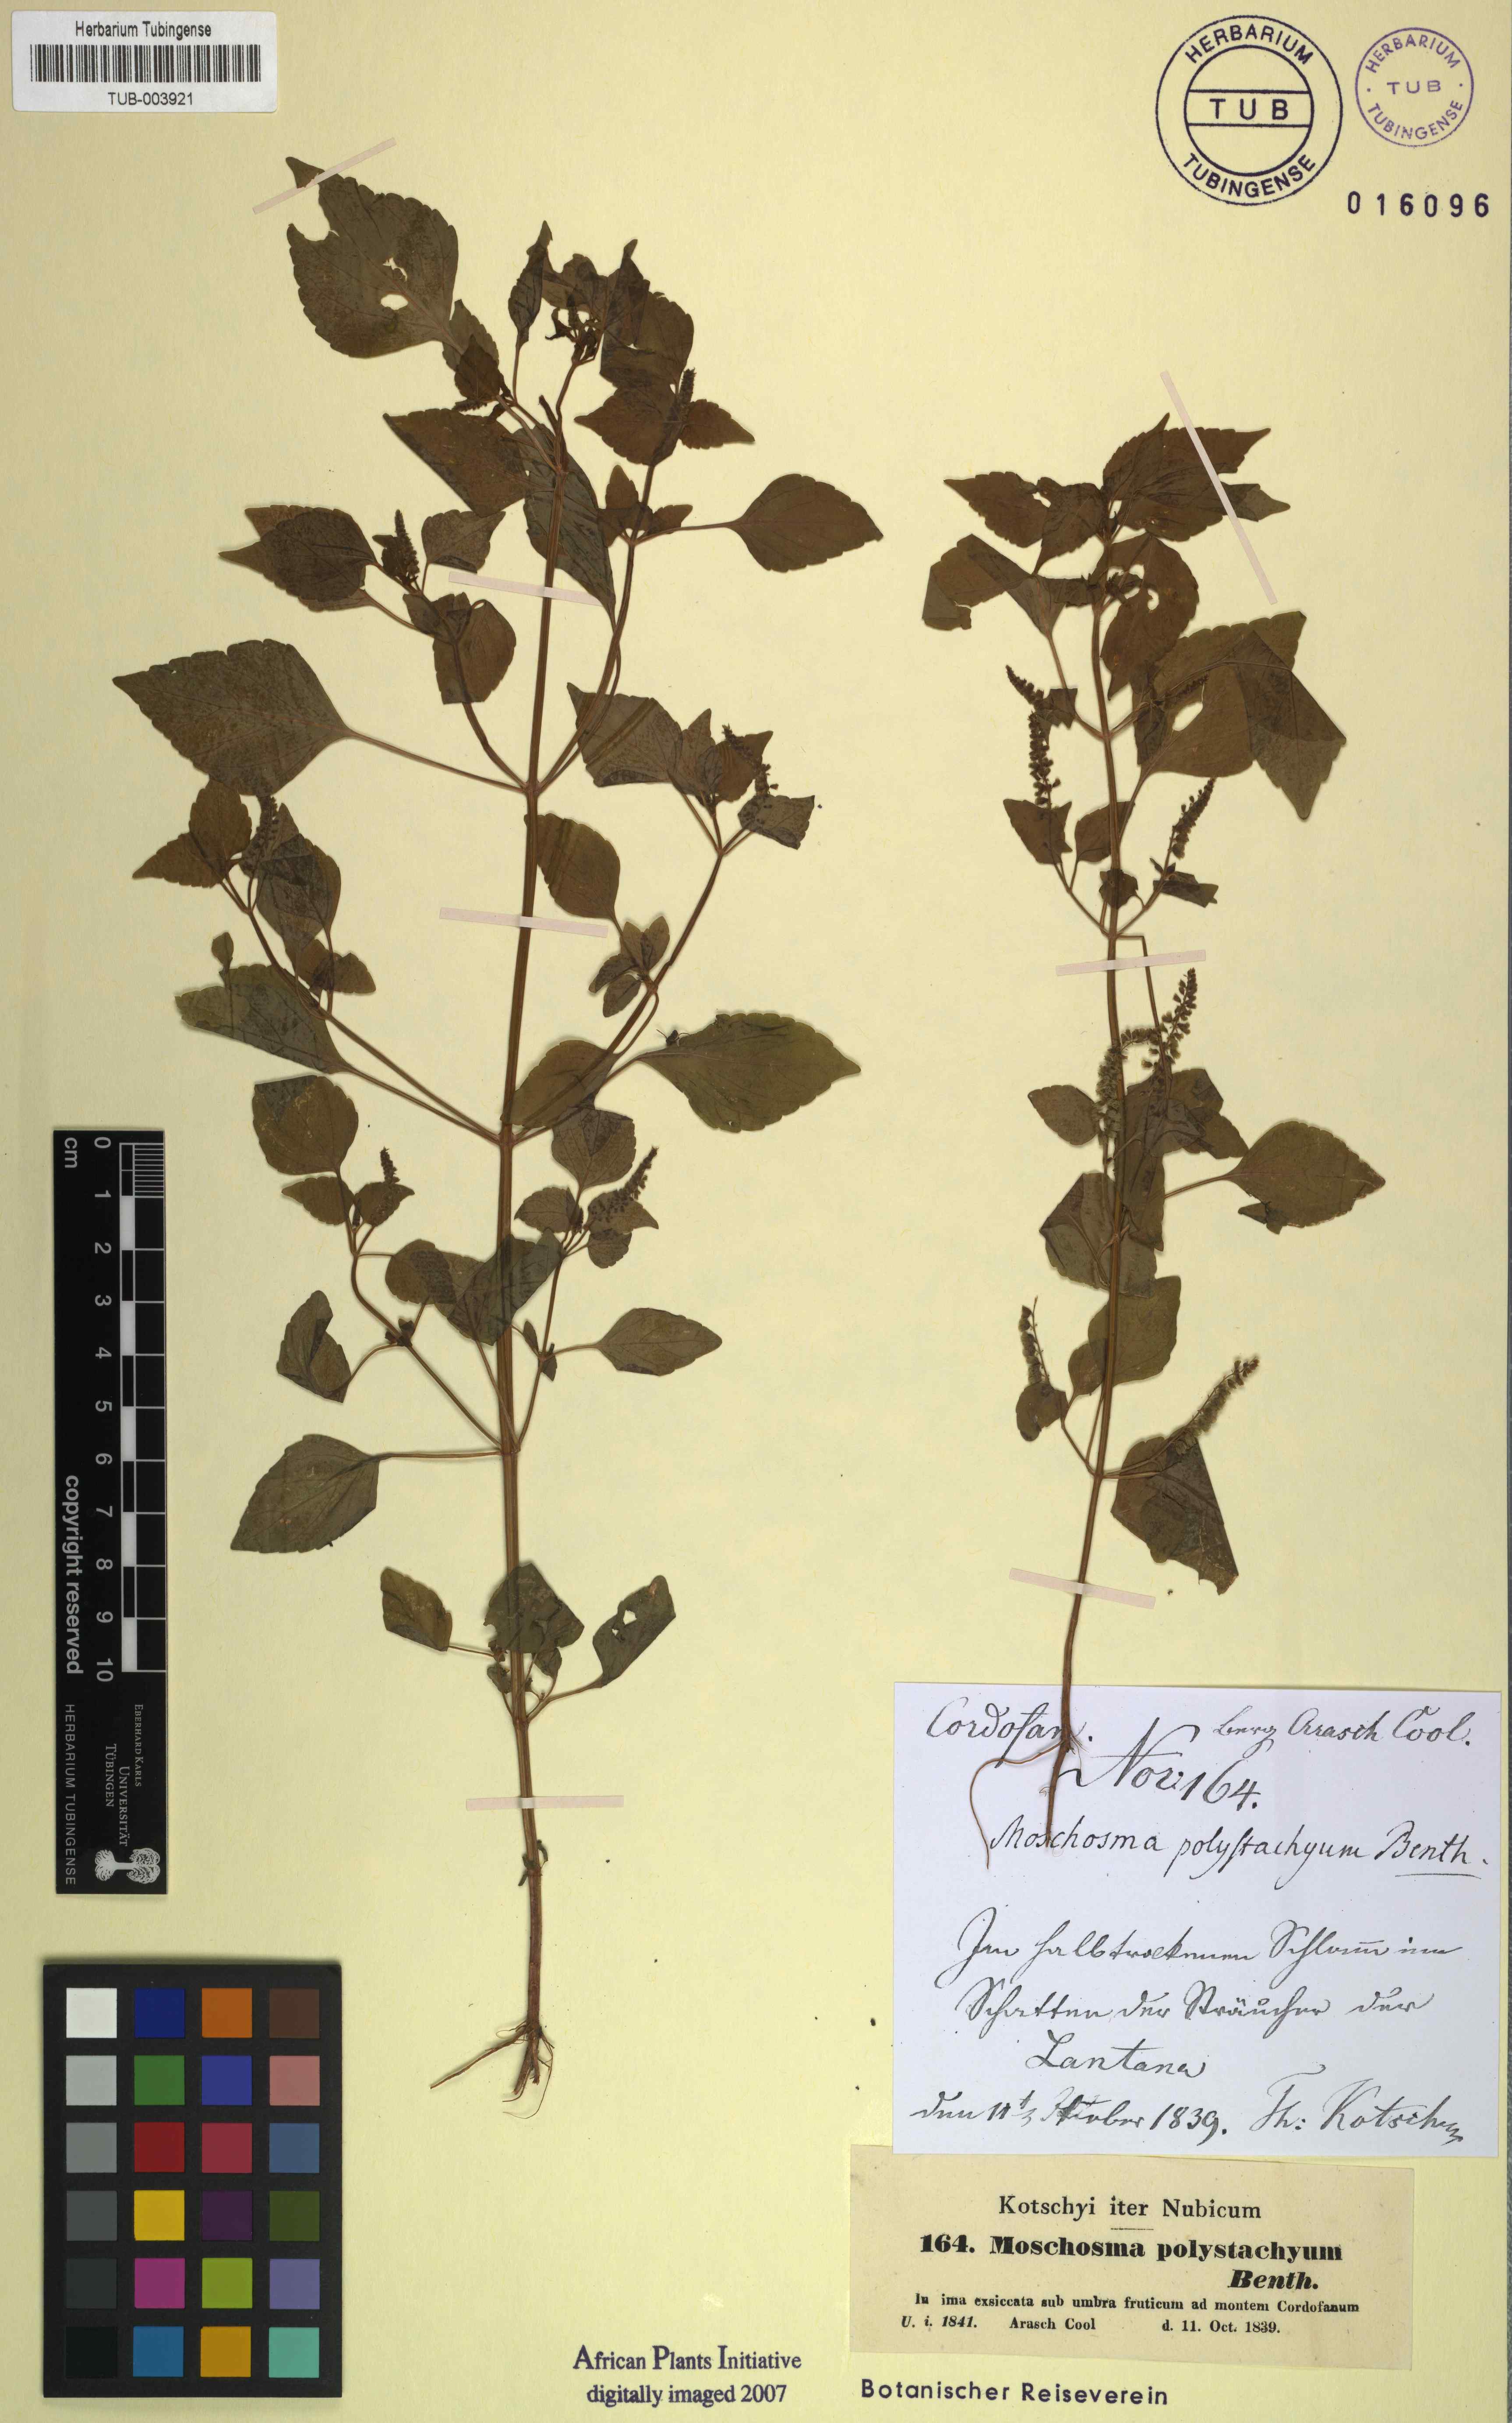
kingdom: Plantae
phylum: Tracheophyta
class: Magnoliopsida
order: Lamiales
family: Lamiaceae
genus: Basilicum
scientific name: Basilicum polystachyon
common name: Musk-basil
